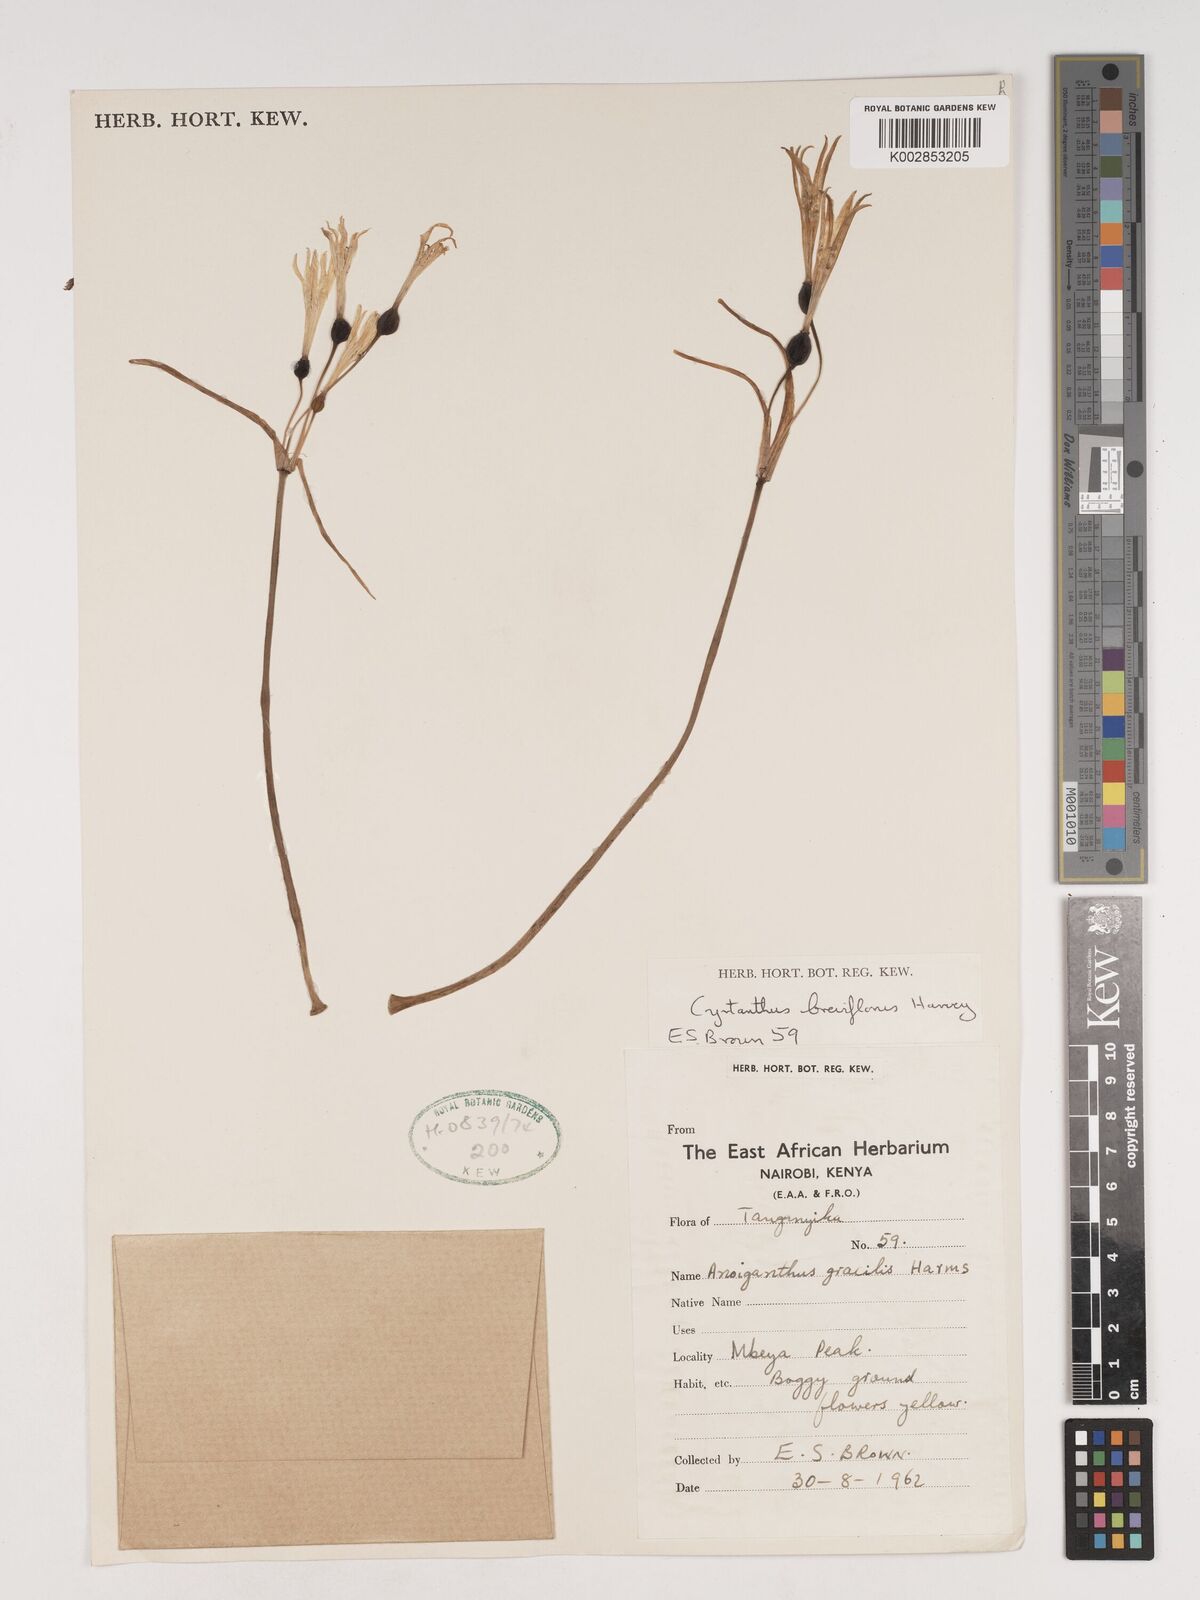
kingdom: Plantae
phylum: Tracheophyta
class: Liliopsida
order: Asparagales
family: Amaryllidaceae
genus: Cyrtanthus
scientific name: Cyrtanthus breviflorus
